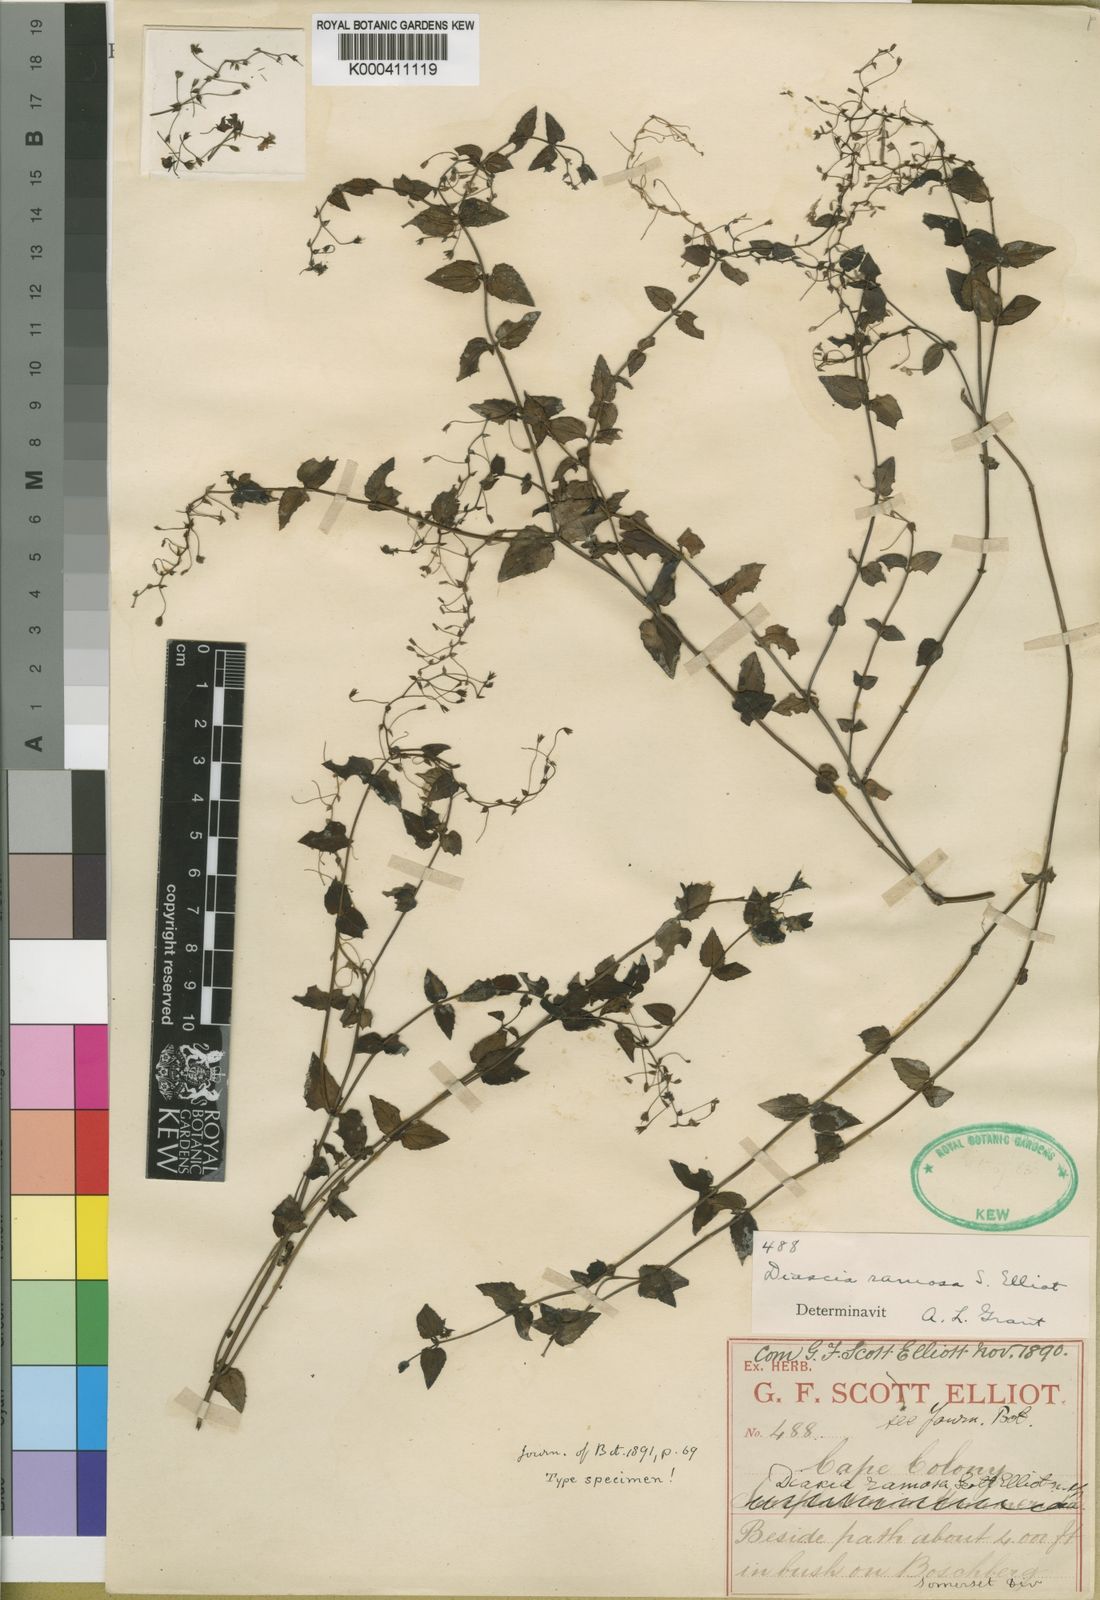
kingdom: Plantae
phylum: Tracheophyta
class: Magnoliopsida
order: Lamiales
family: Scrophulariaceae
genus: Diascia
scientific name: Diascia ramosa
